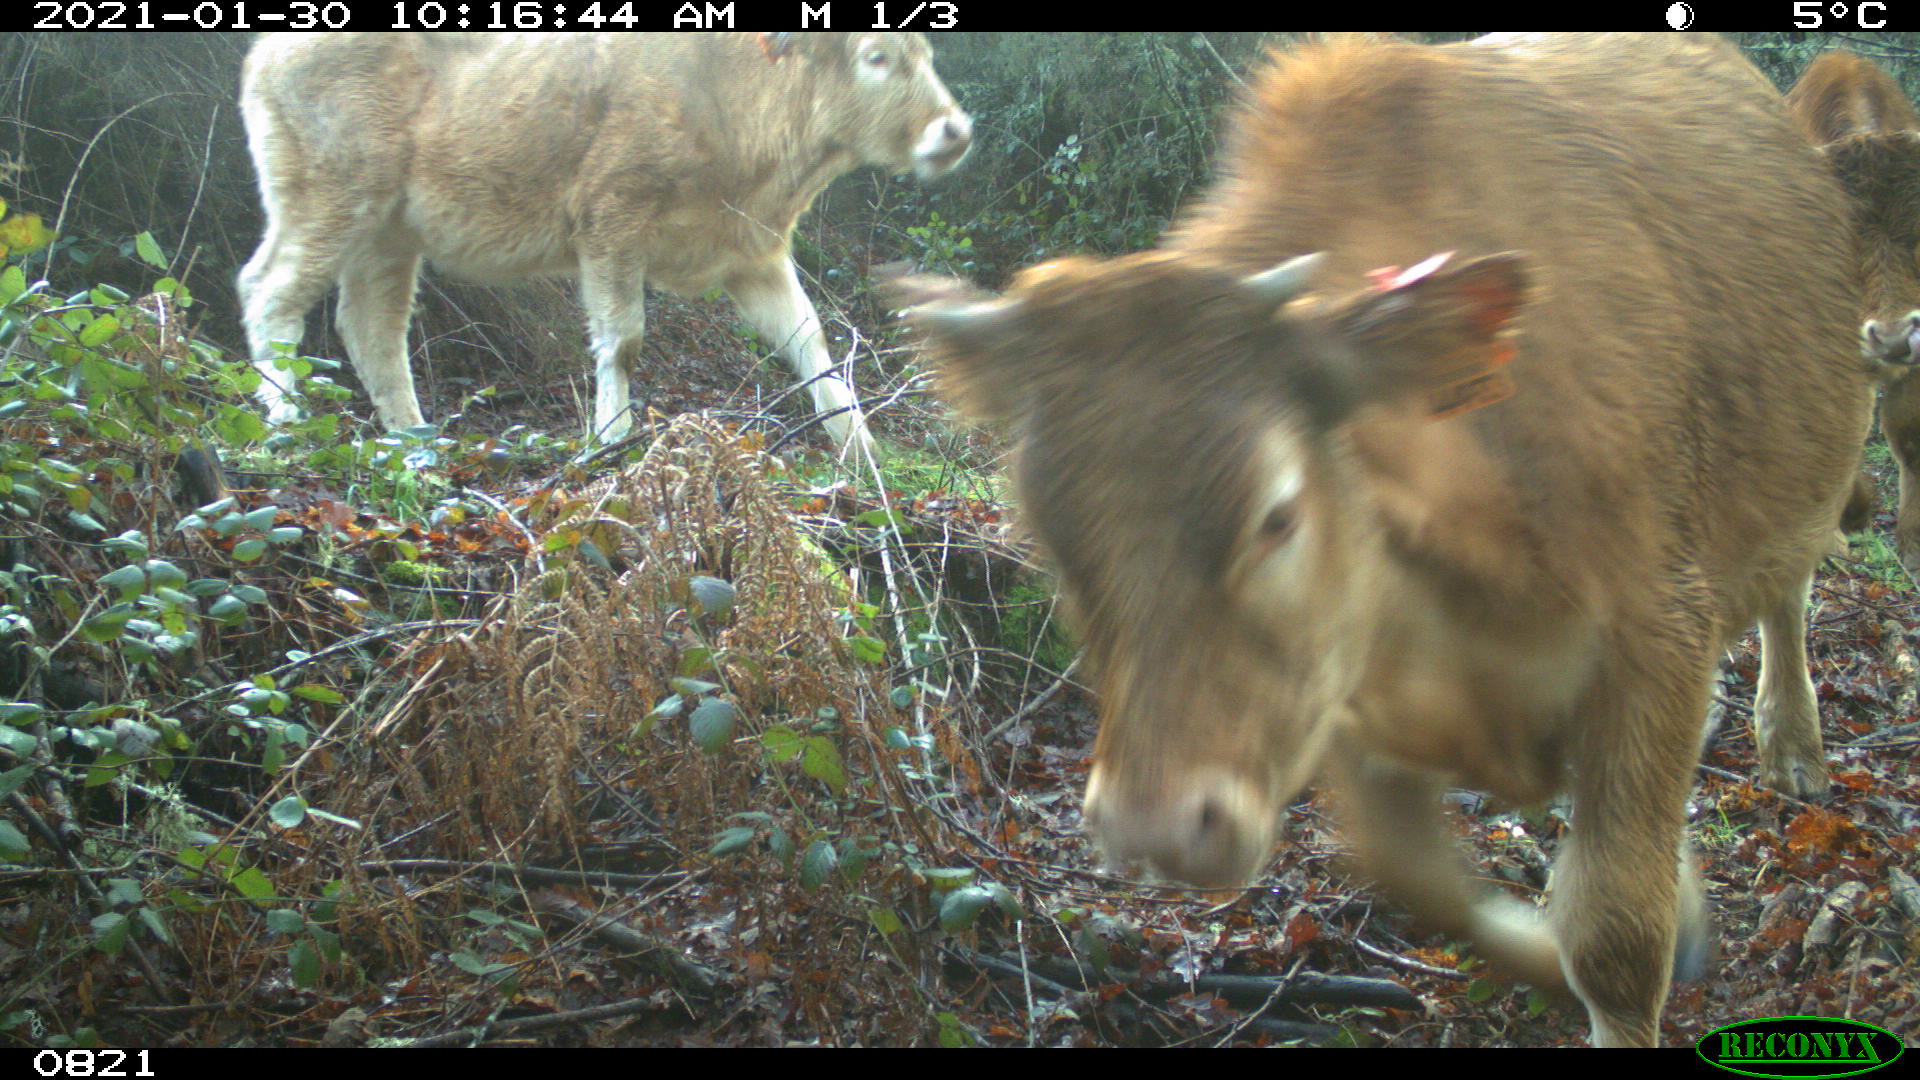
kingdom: Animalia
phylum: Chordata
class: Mammalia
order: Artiodactyla
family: Bovidae
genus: Bos
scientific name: Bos taurus
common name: Domesticated cattle
